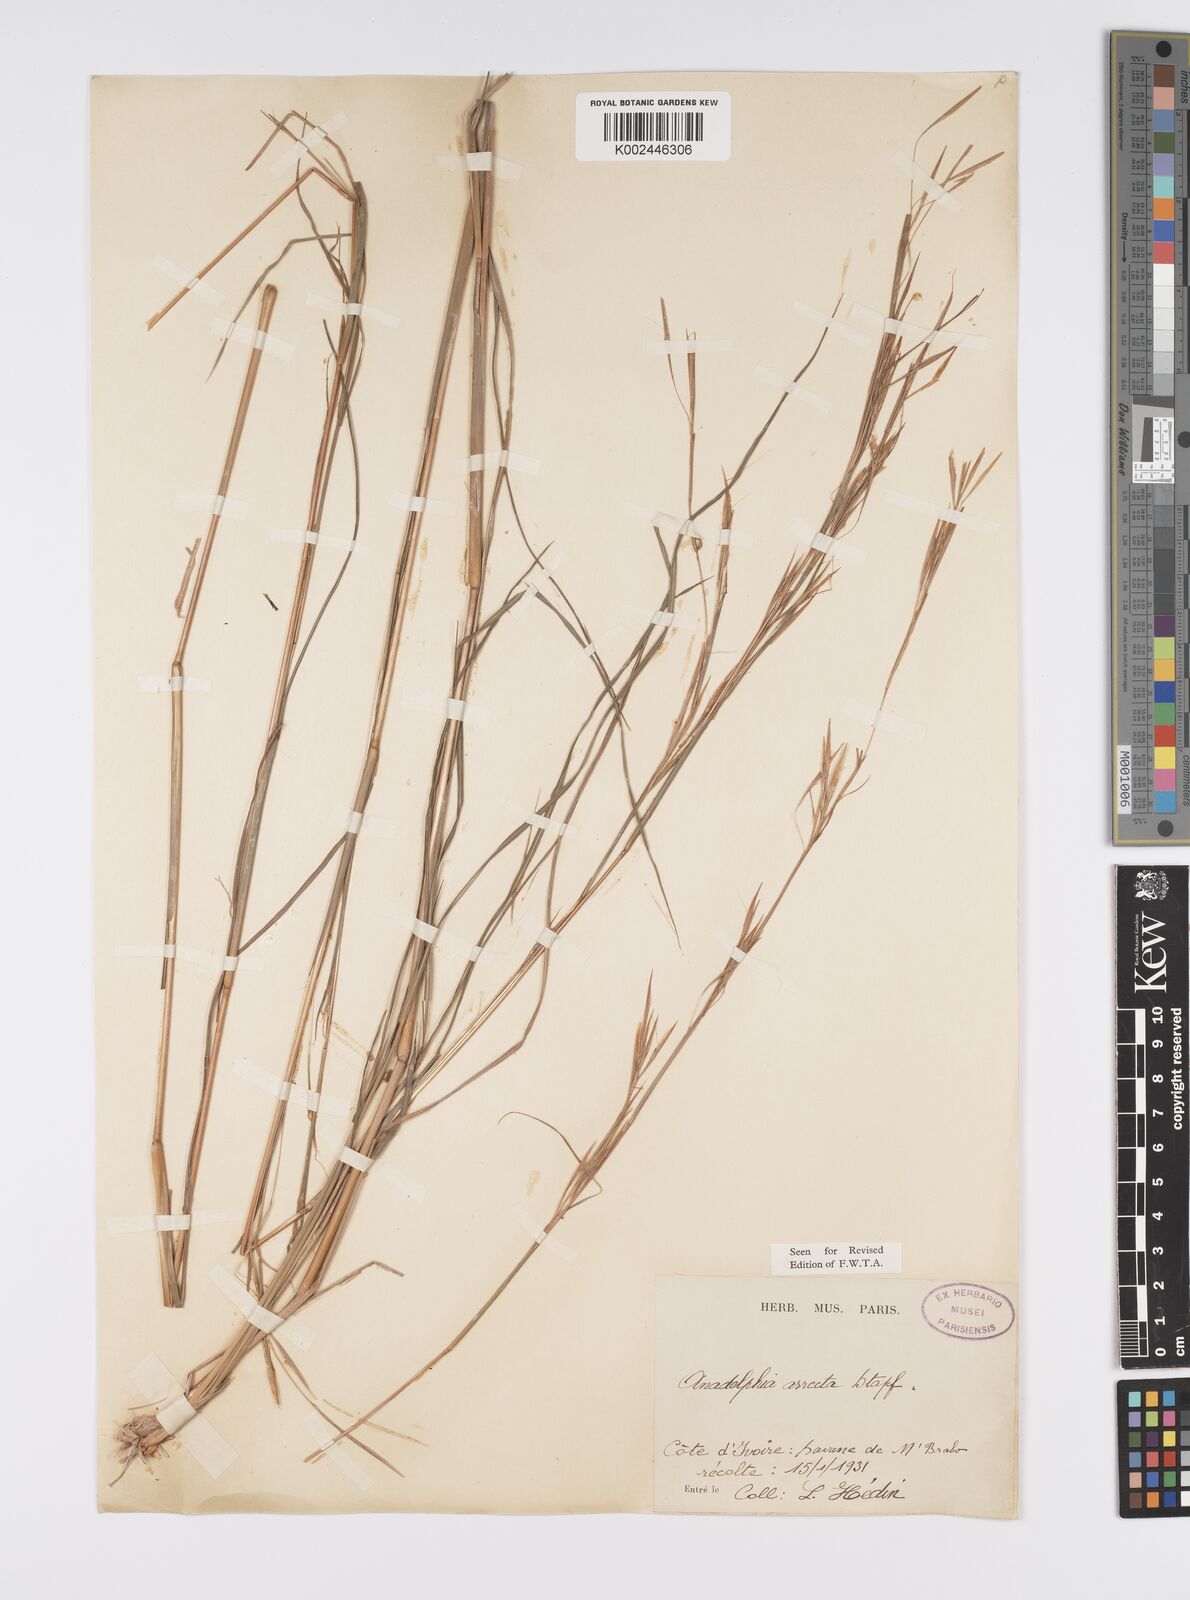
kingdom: Plantae
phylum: Tracheophyta
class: Liliopsida
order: Poales
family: Poaceae
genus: Anadelphia
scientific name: Anadelphia afzeliana
